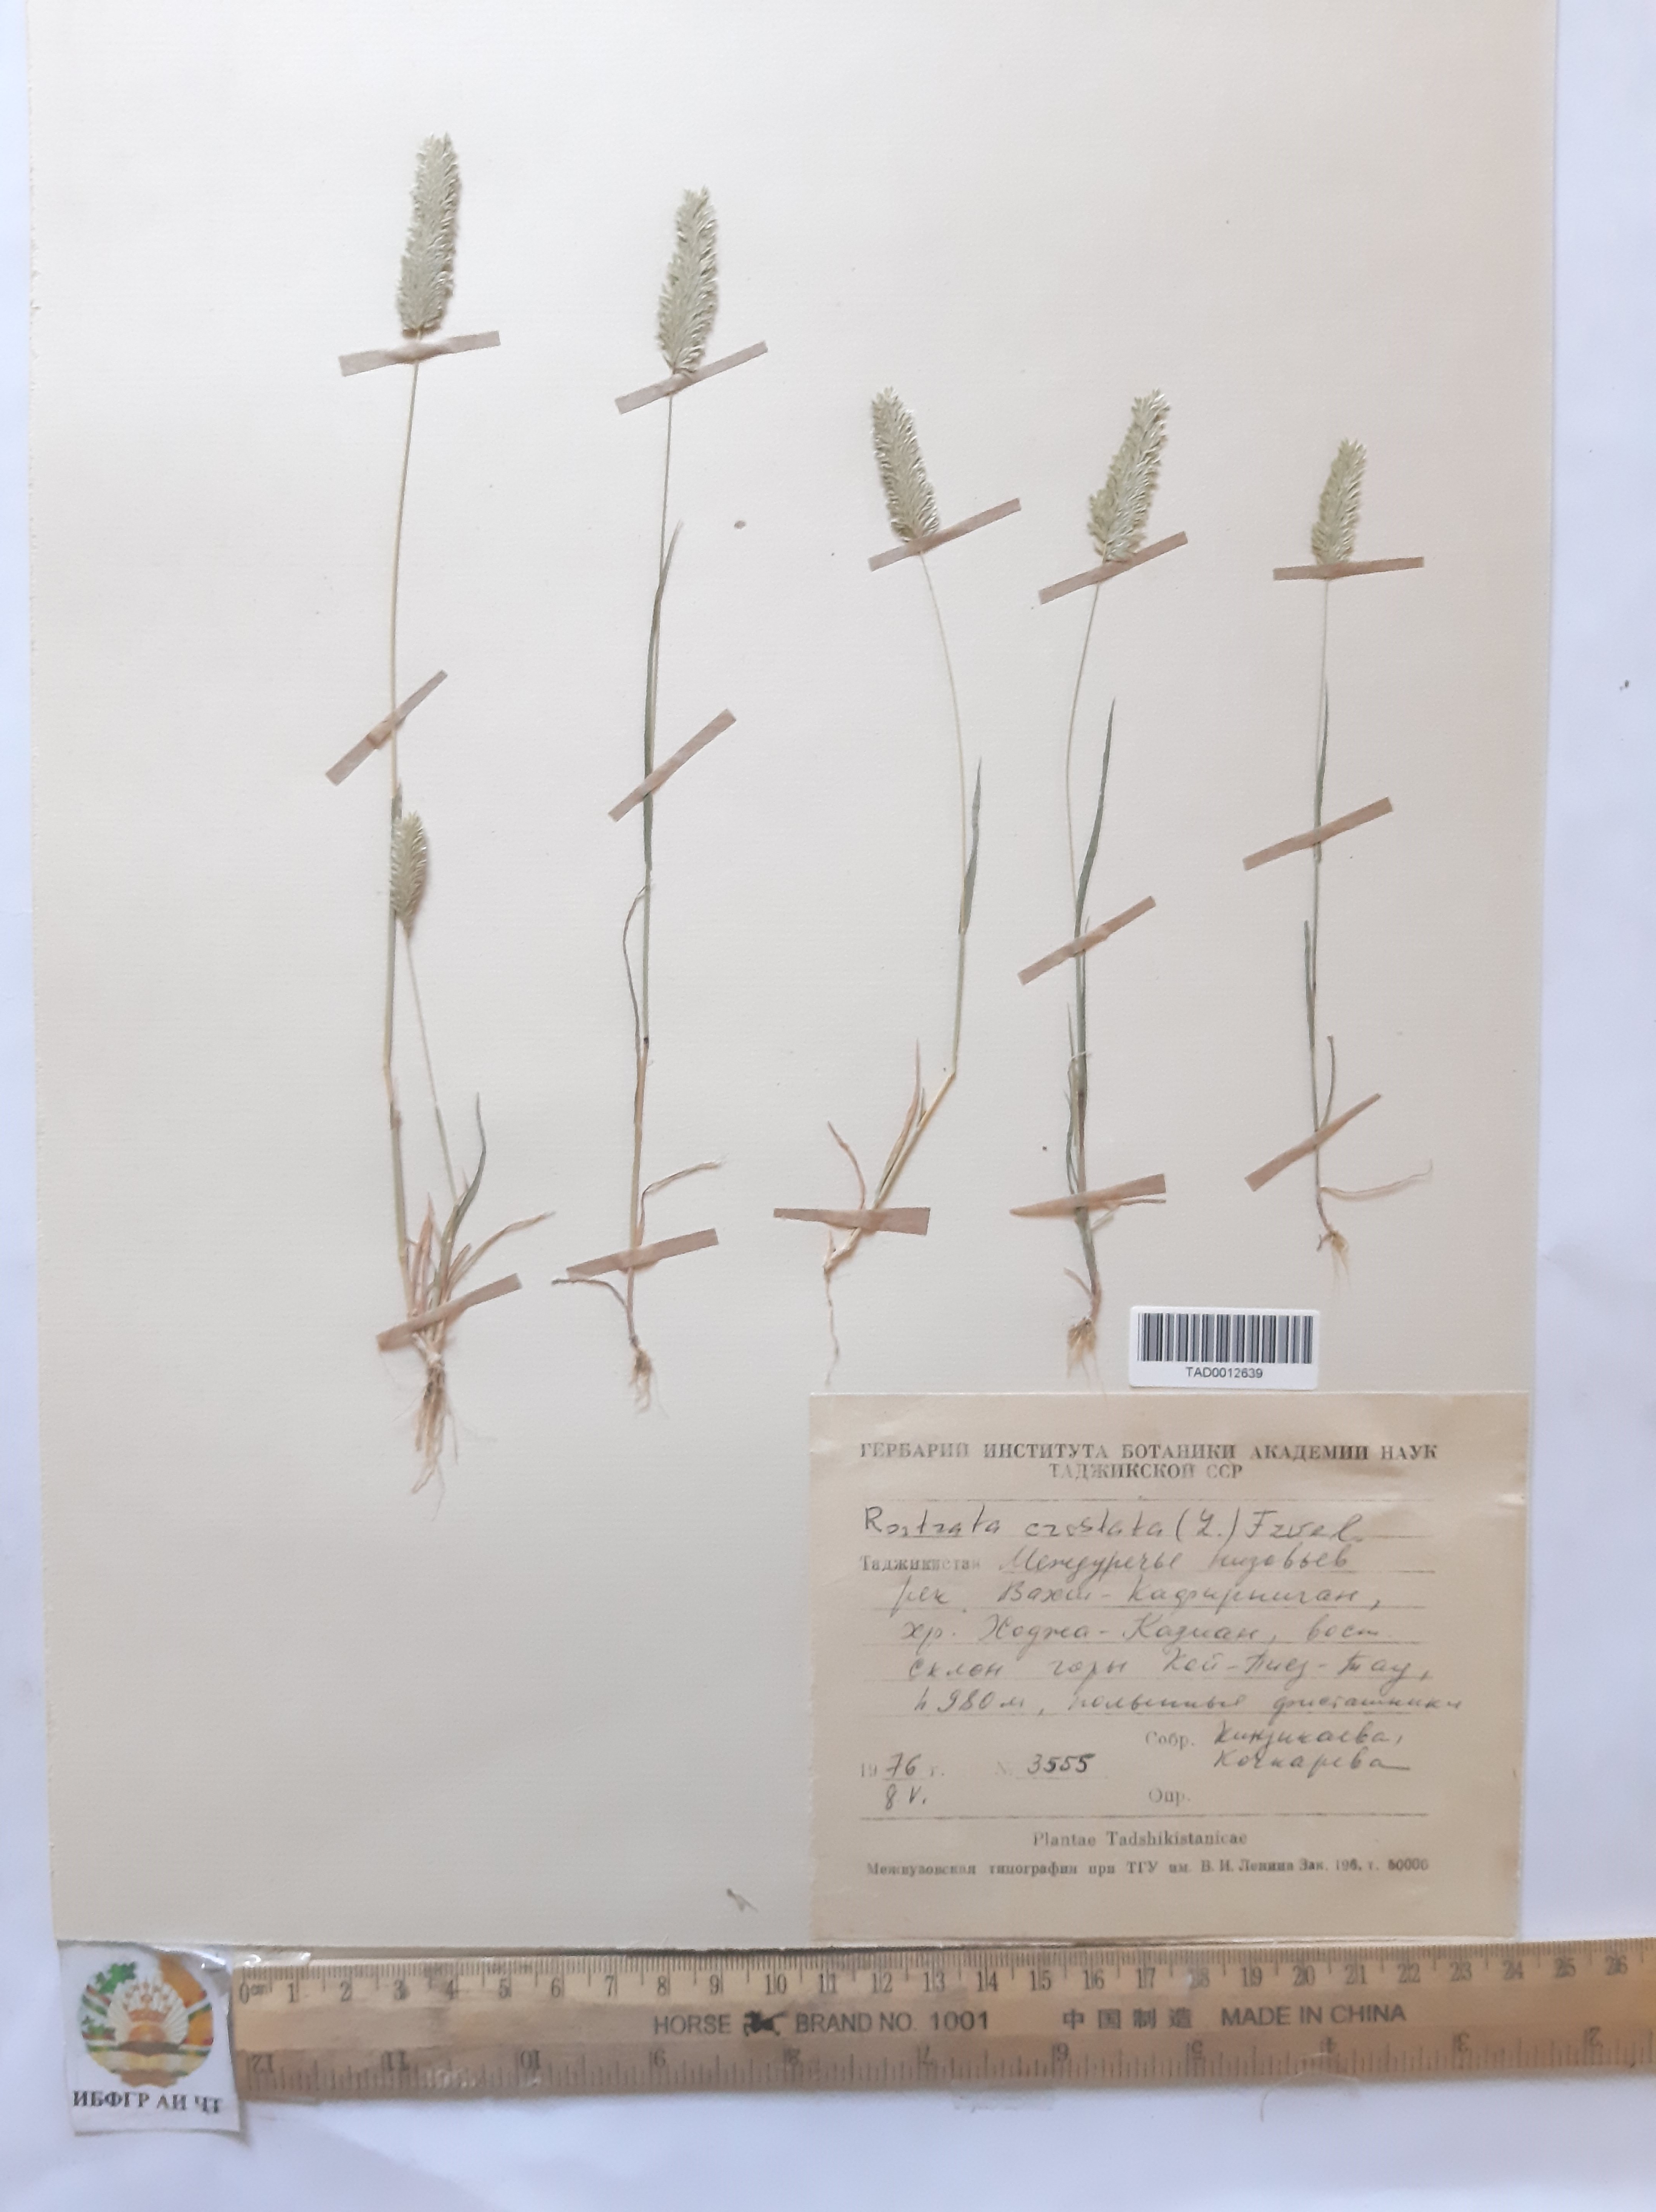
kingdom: Plantae
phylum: Tracheophyta
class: Liliopsida
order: Poales
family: Poaceae
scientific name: Poaceae
